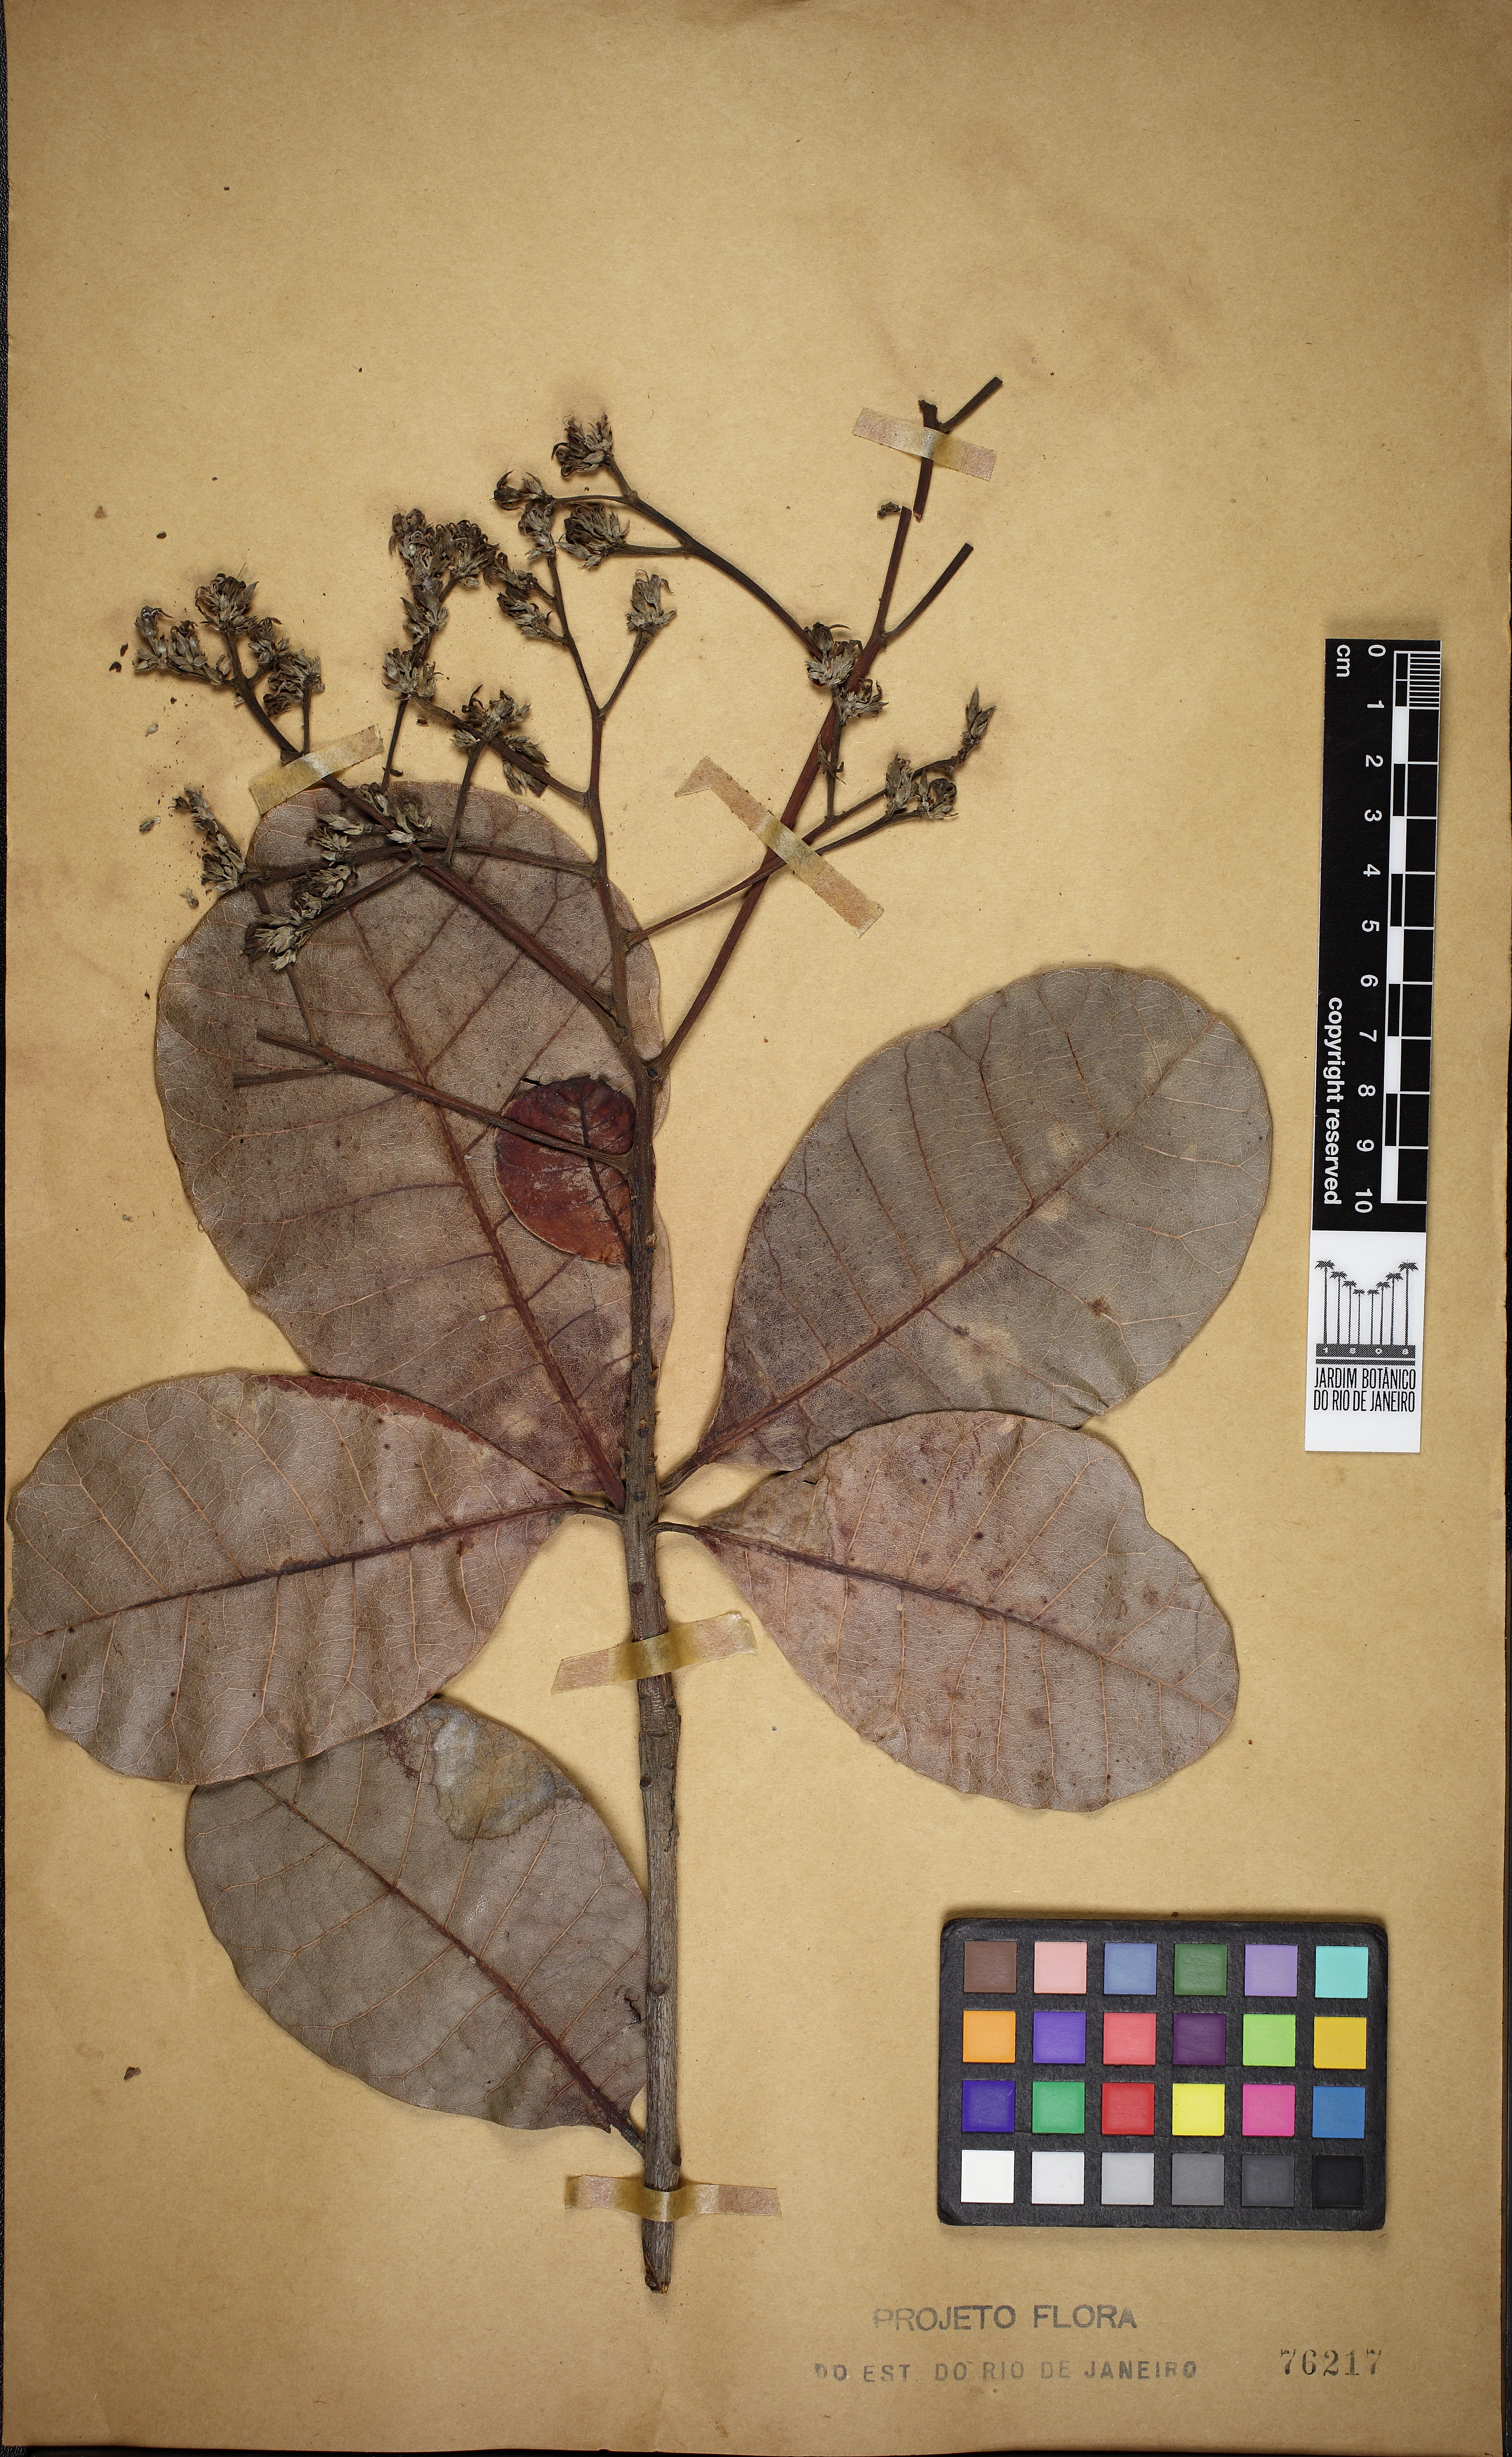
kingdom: Plantae
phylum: Tracheophyta
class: Magnoliopsida
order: Sapindales
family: Anacardiaceae
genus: Anacardium
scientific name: Anacardium occidentale
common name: Cashew
